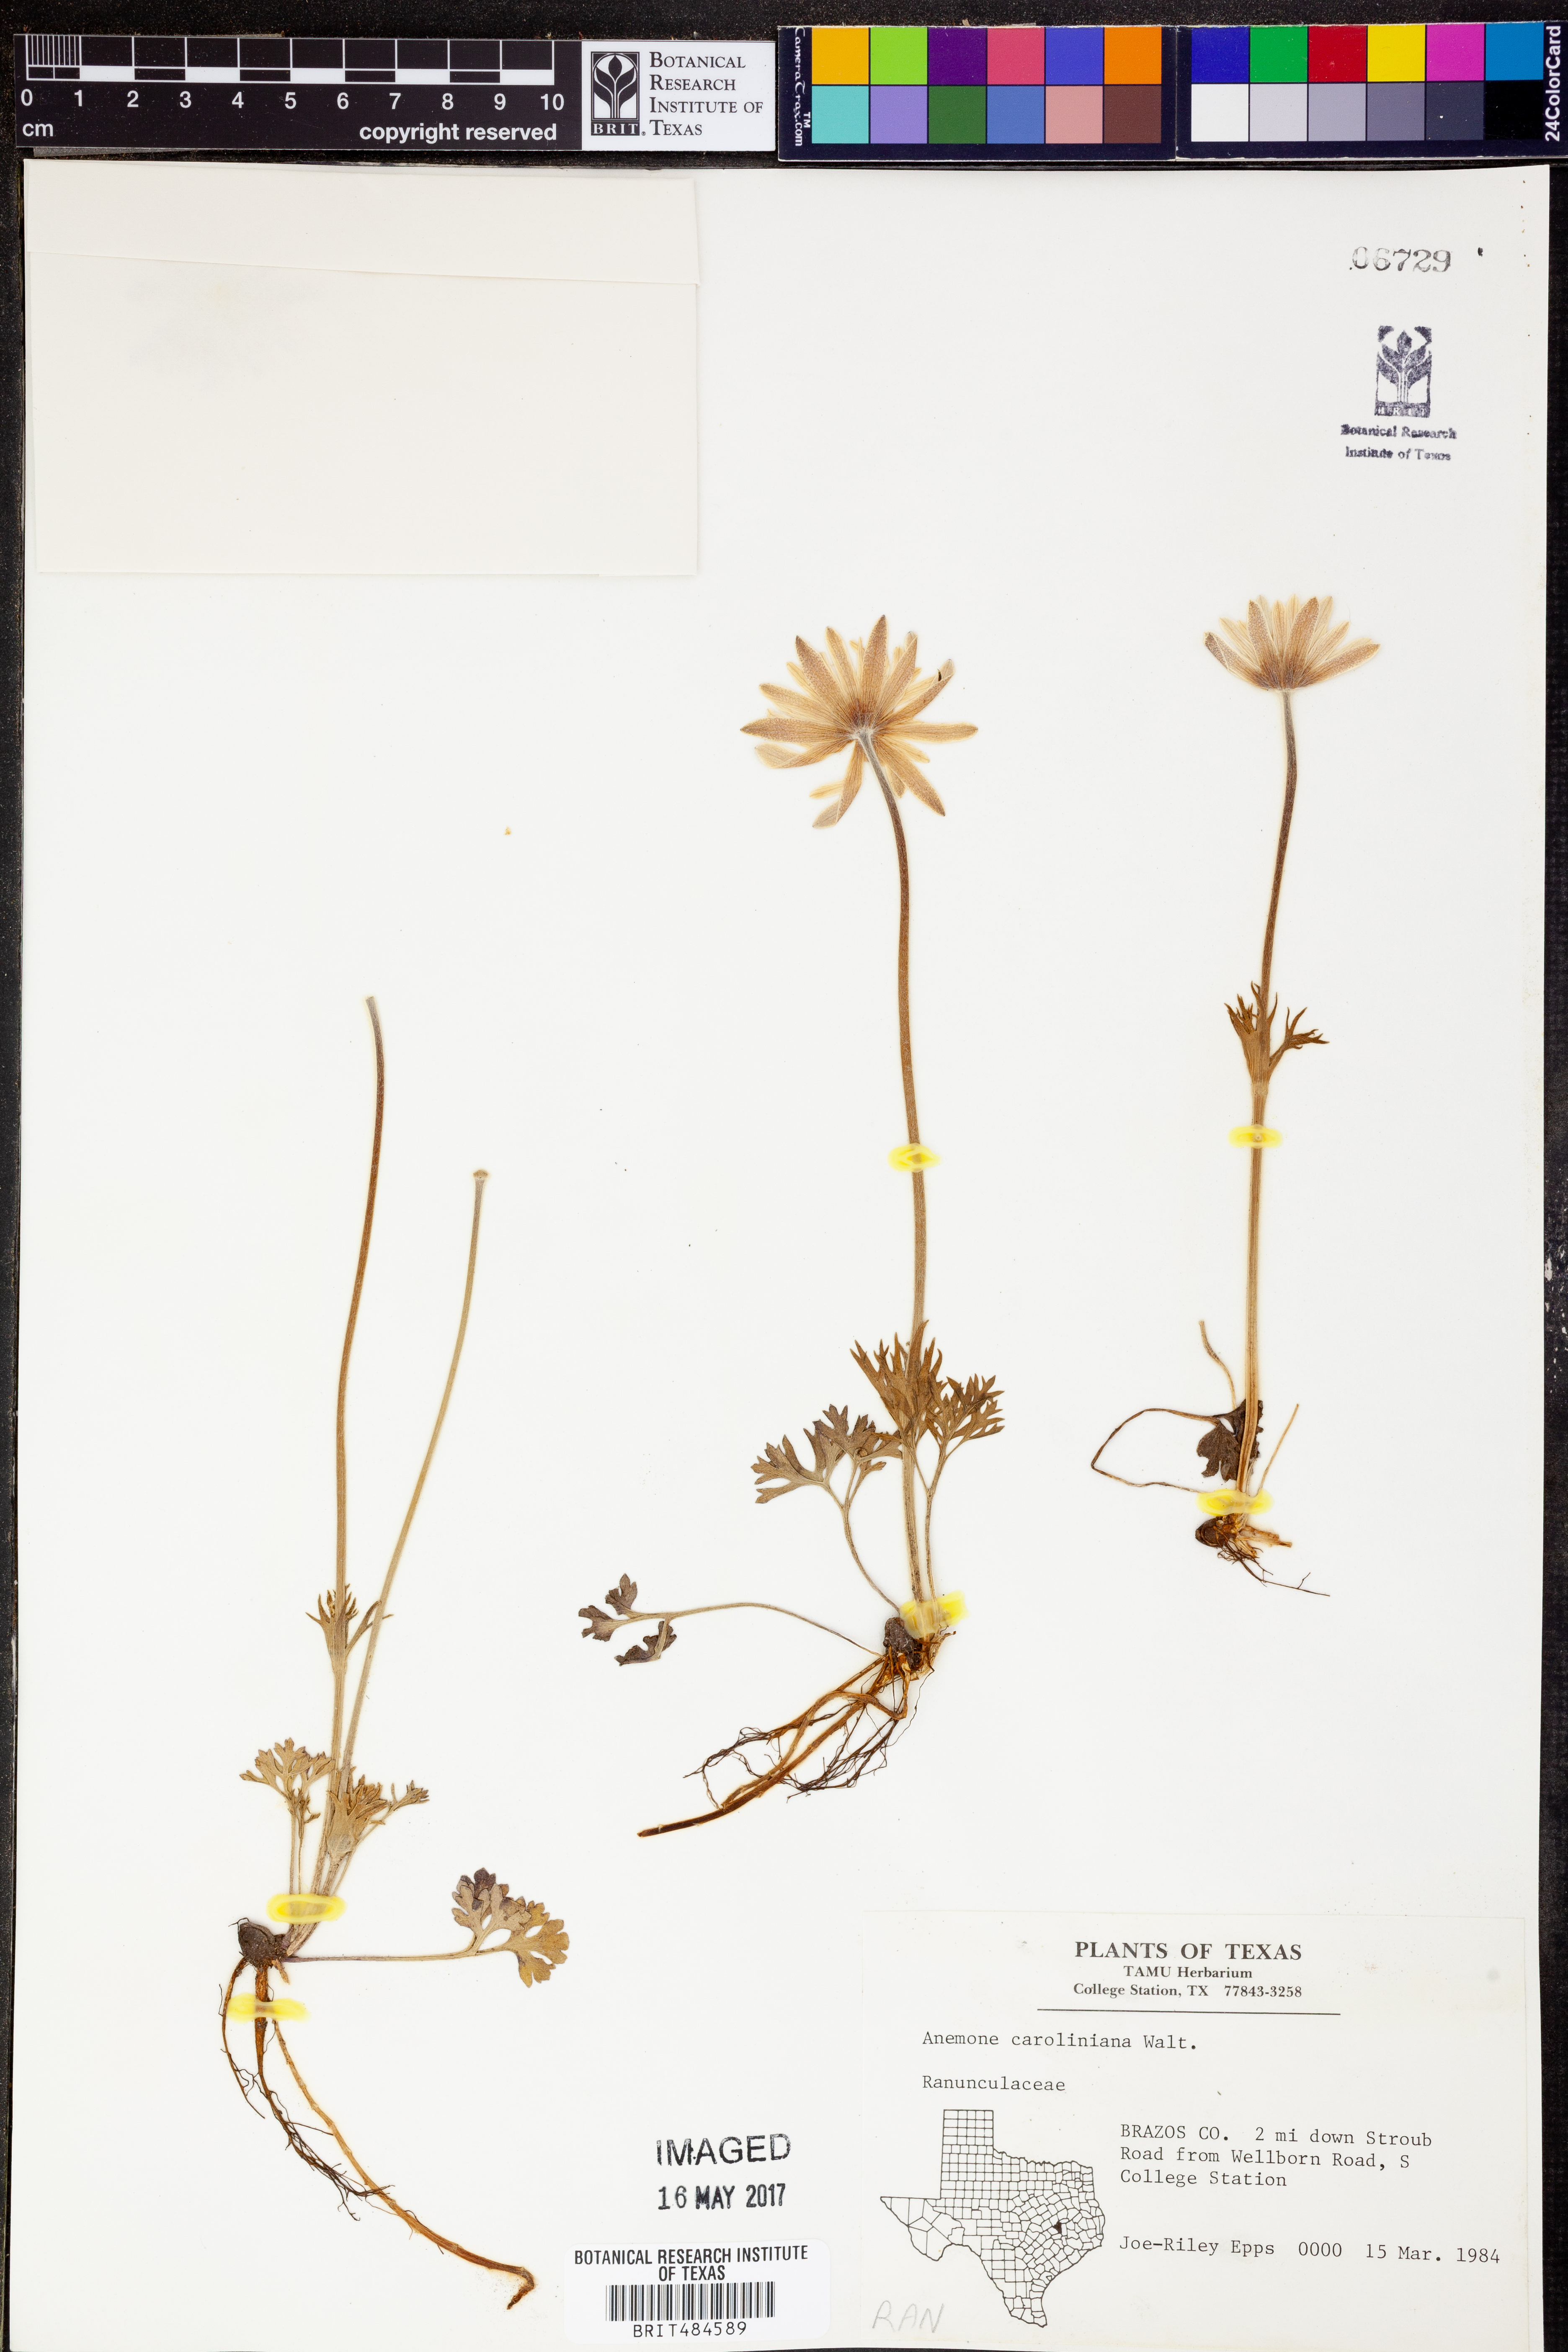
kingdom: Plantae
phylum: Tracheophyta
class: Magnoliopsida
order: Ranunculales
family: Ranunculaceae
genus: Anemone
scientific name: Anemone caroliniana
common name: Carolina anemone
